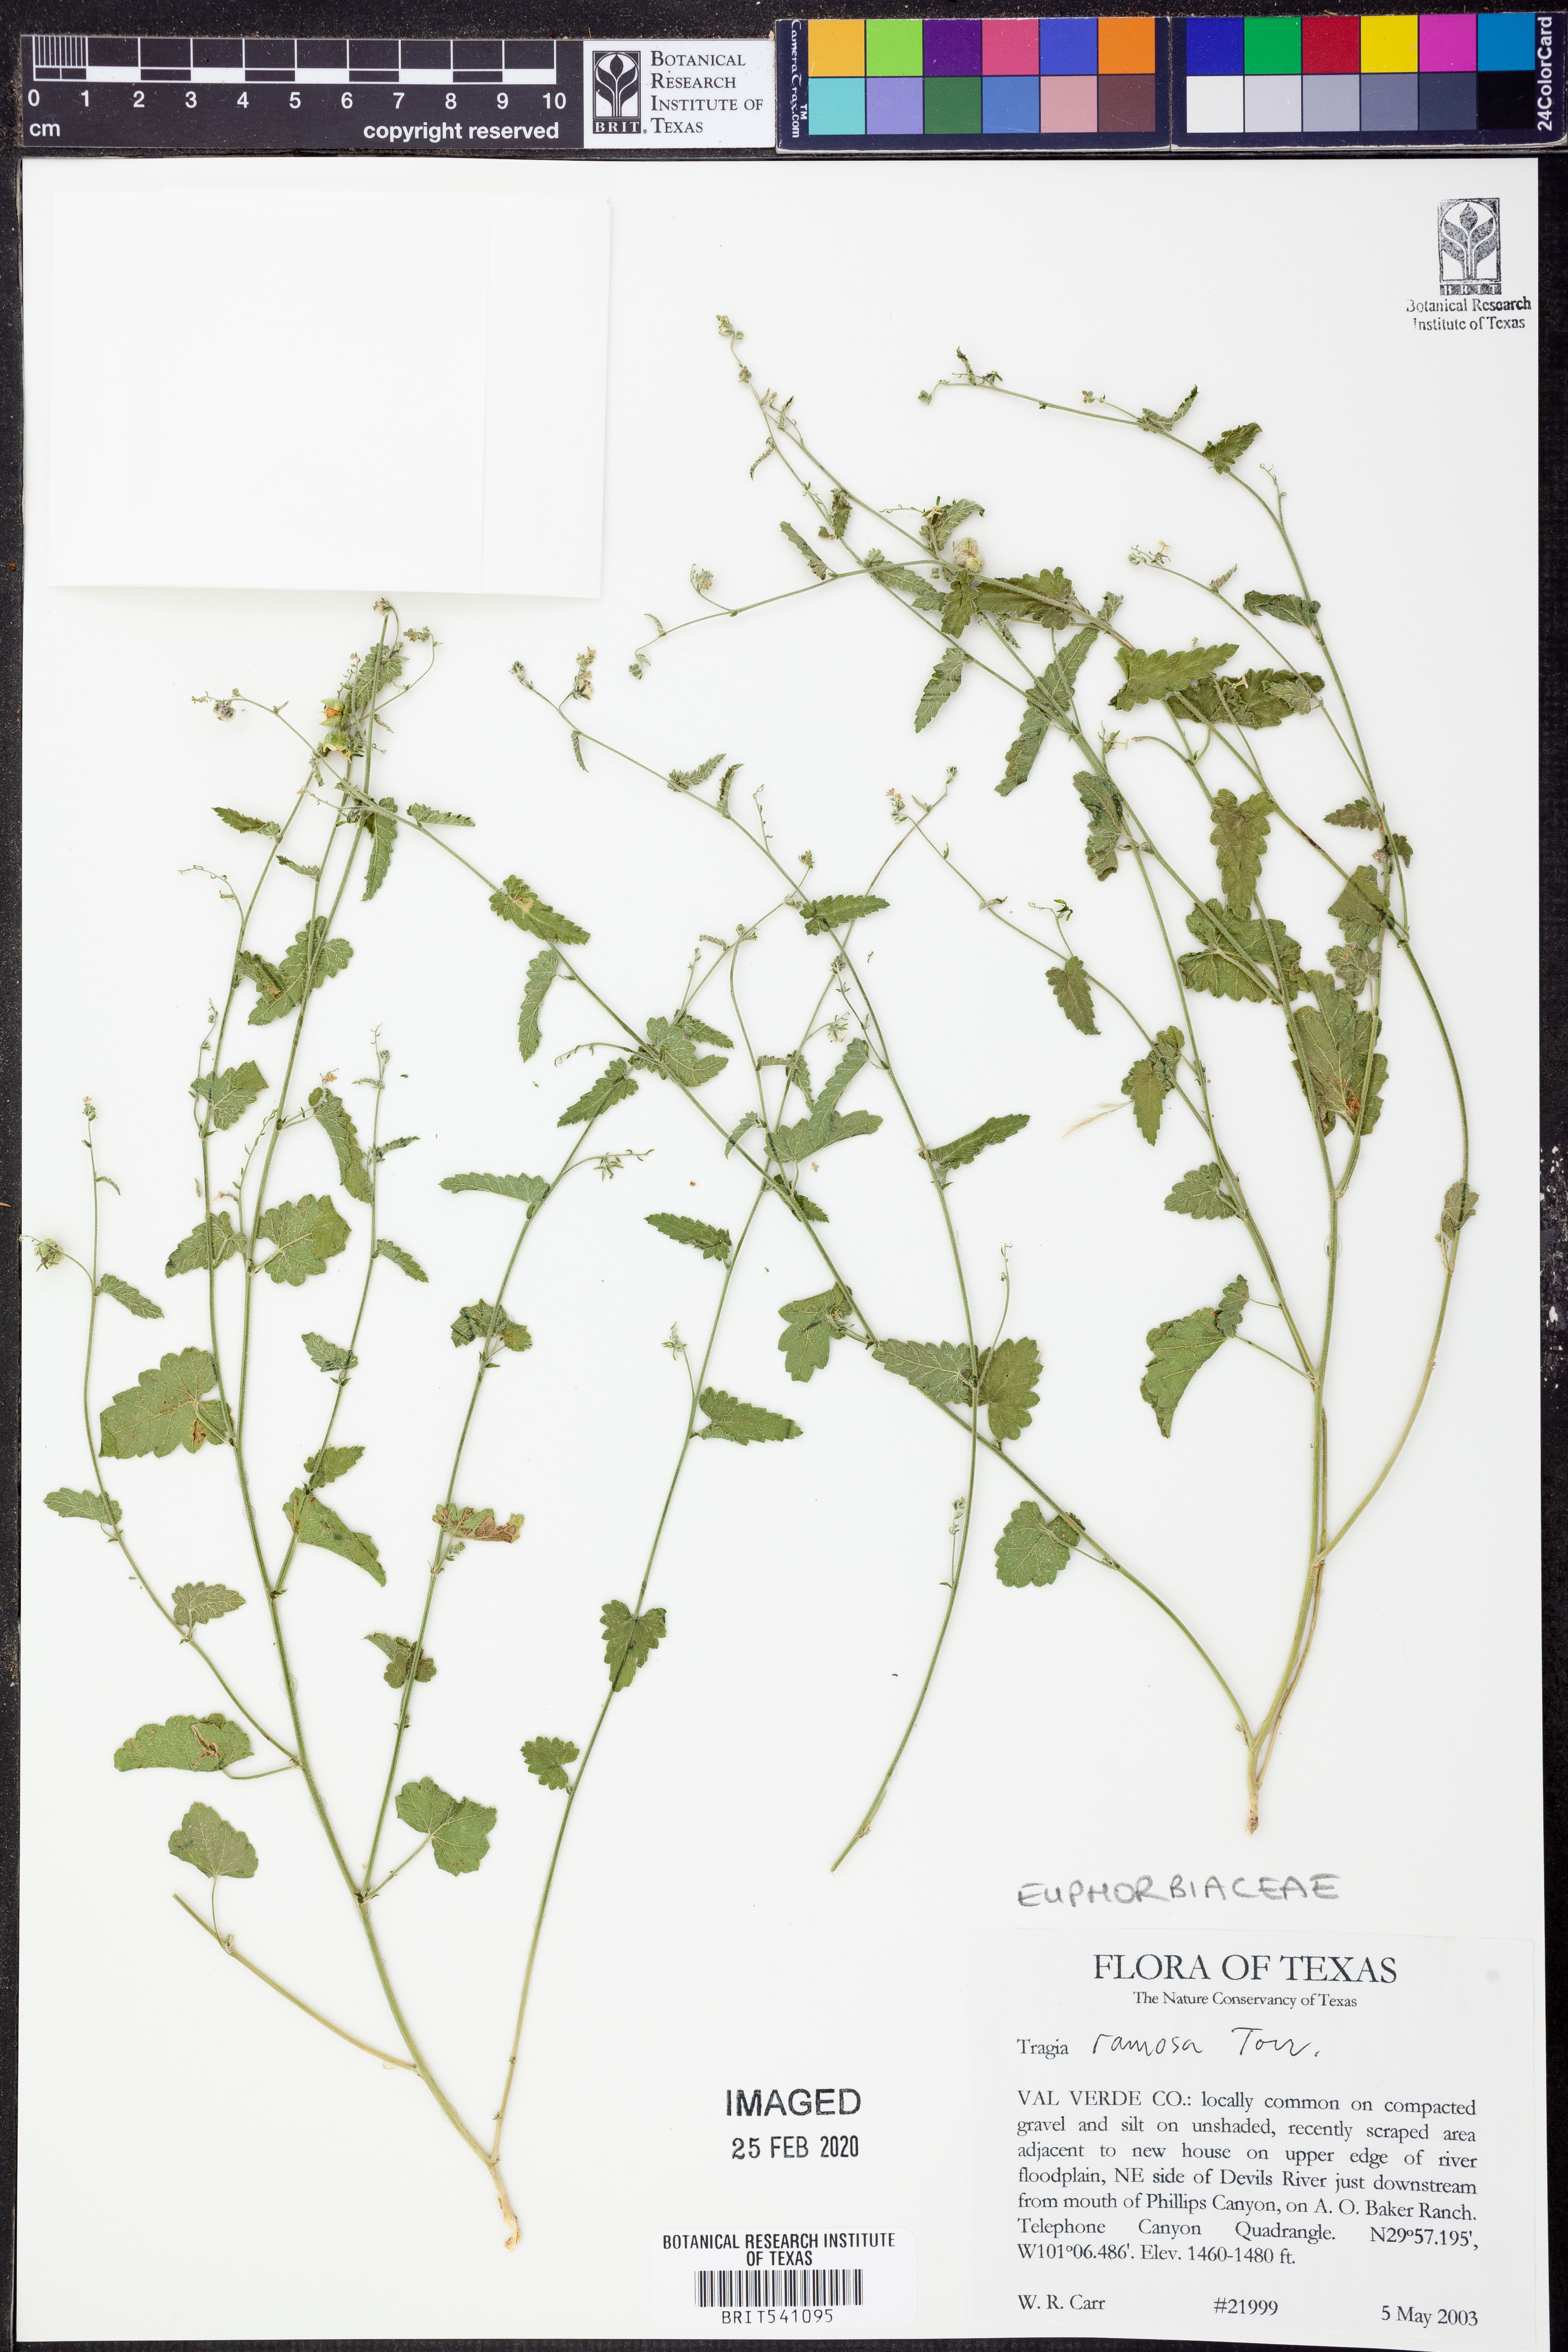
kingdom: Plantae
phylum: Tracheophyta
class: Magnoliopsida
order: Malpighiales
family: Euphorbiaceae
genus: Tragia
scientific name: Tragia ramosa
